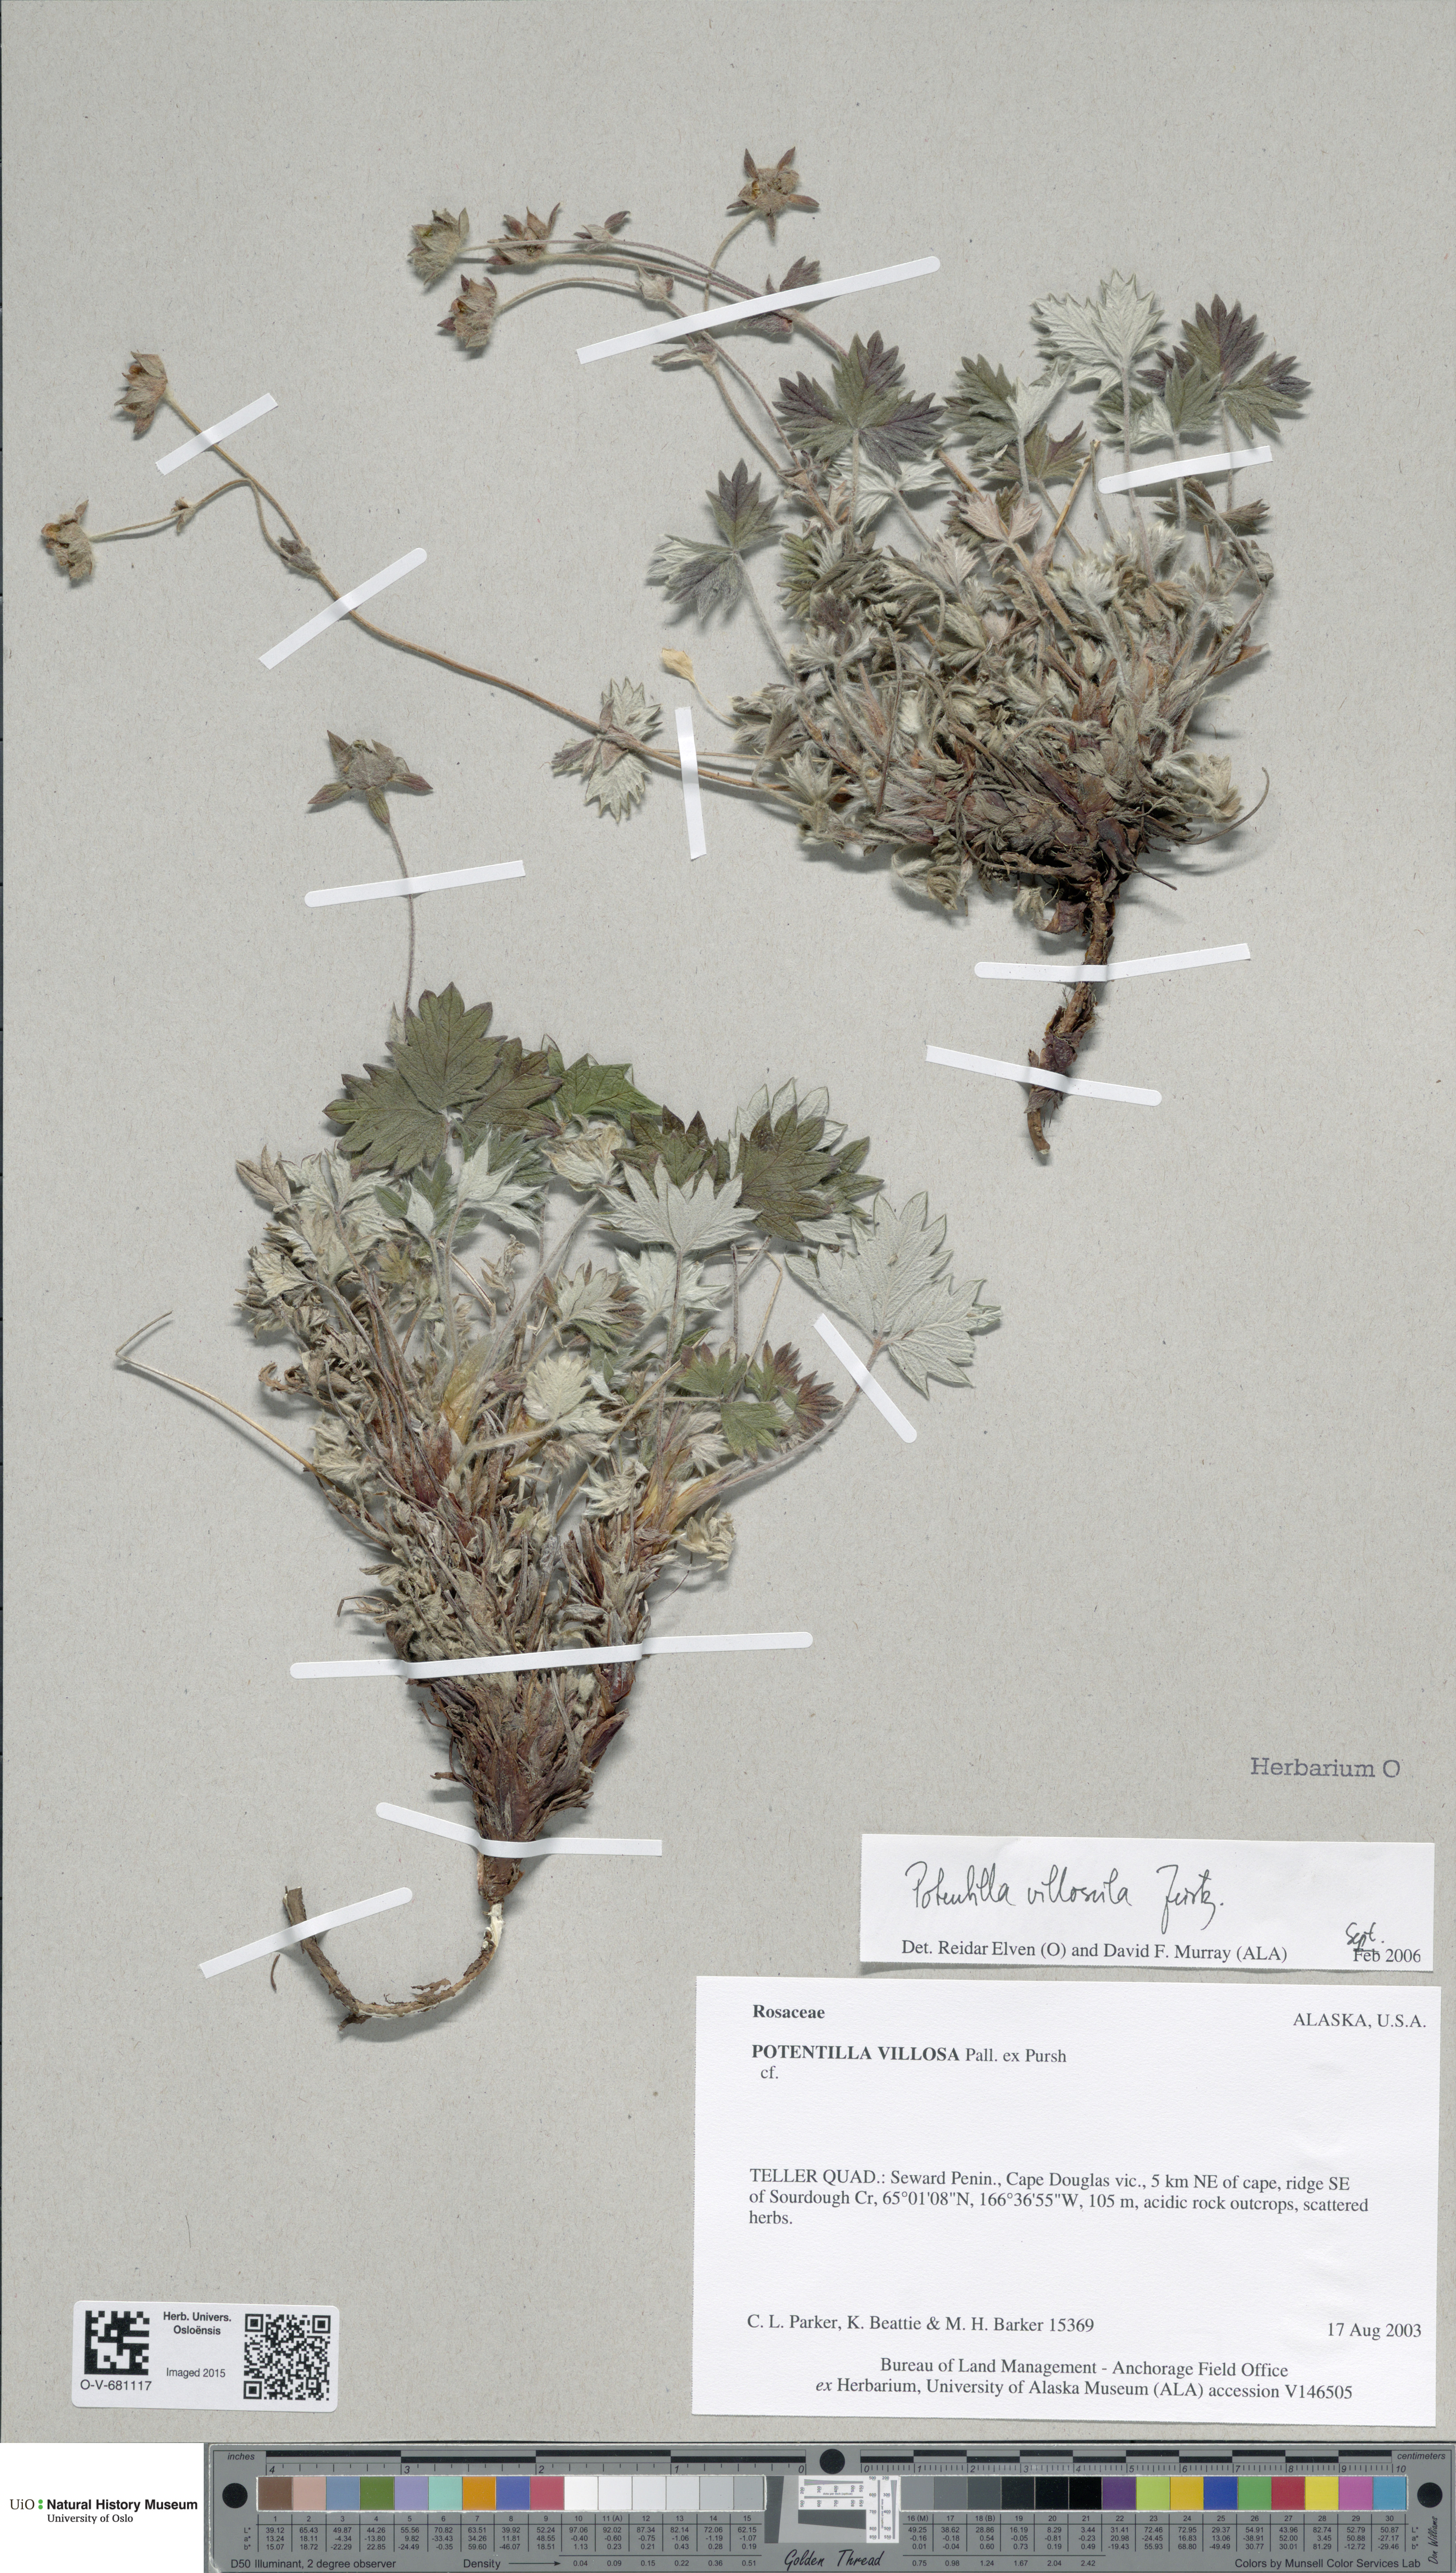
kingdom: Plantae
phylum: Tracheophyta
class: Magnoliopsida
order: Rosales
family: Rosaceae
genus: Potentilla
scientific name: Potentilla villosula
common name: Finely villous cinquefoil
